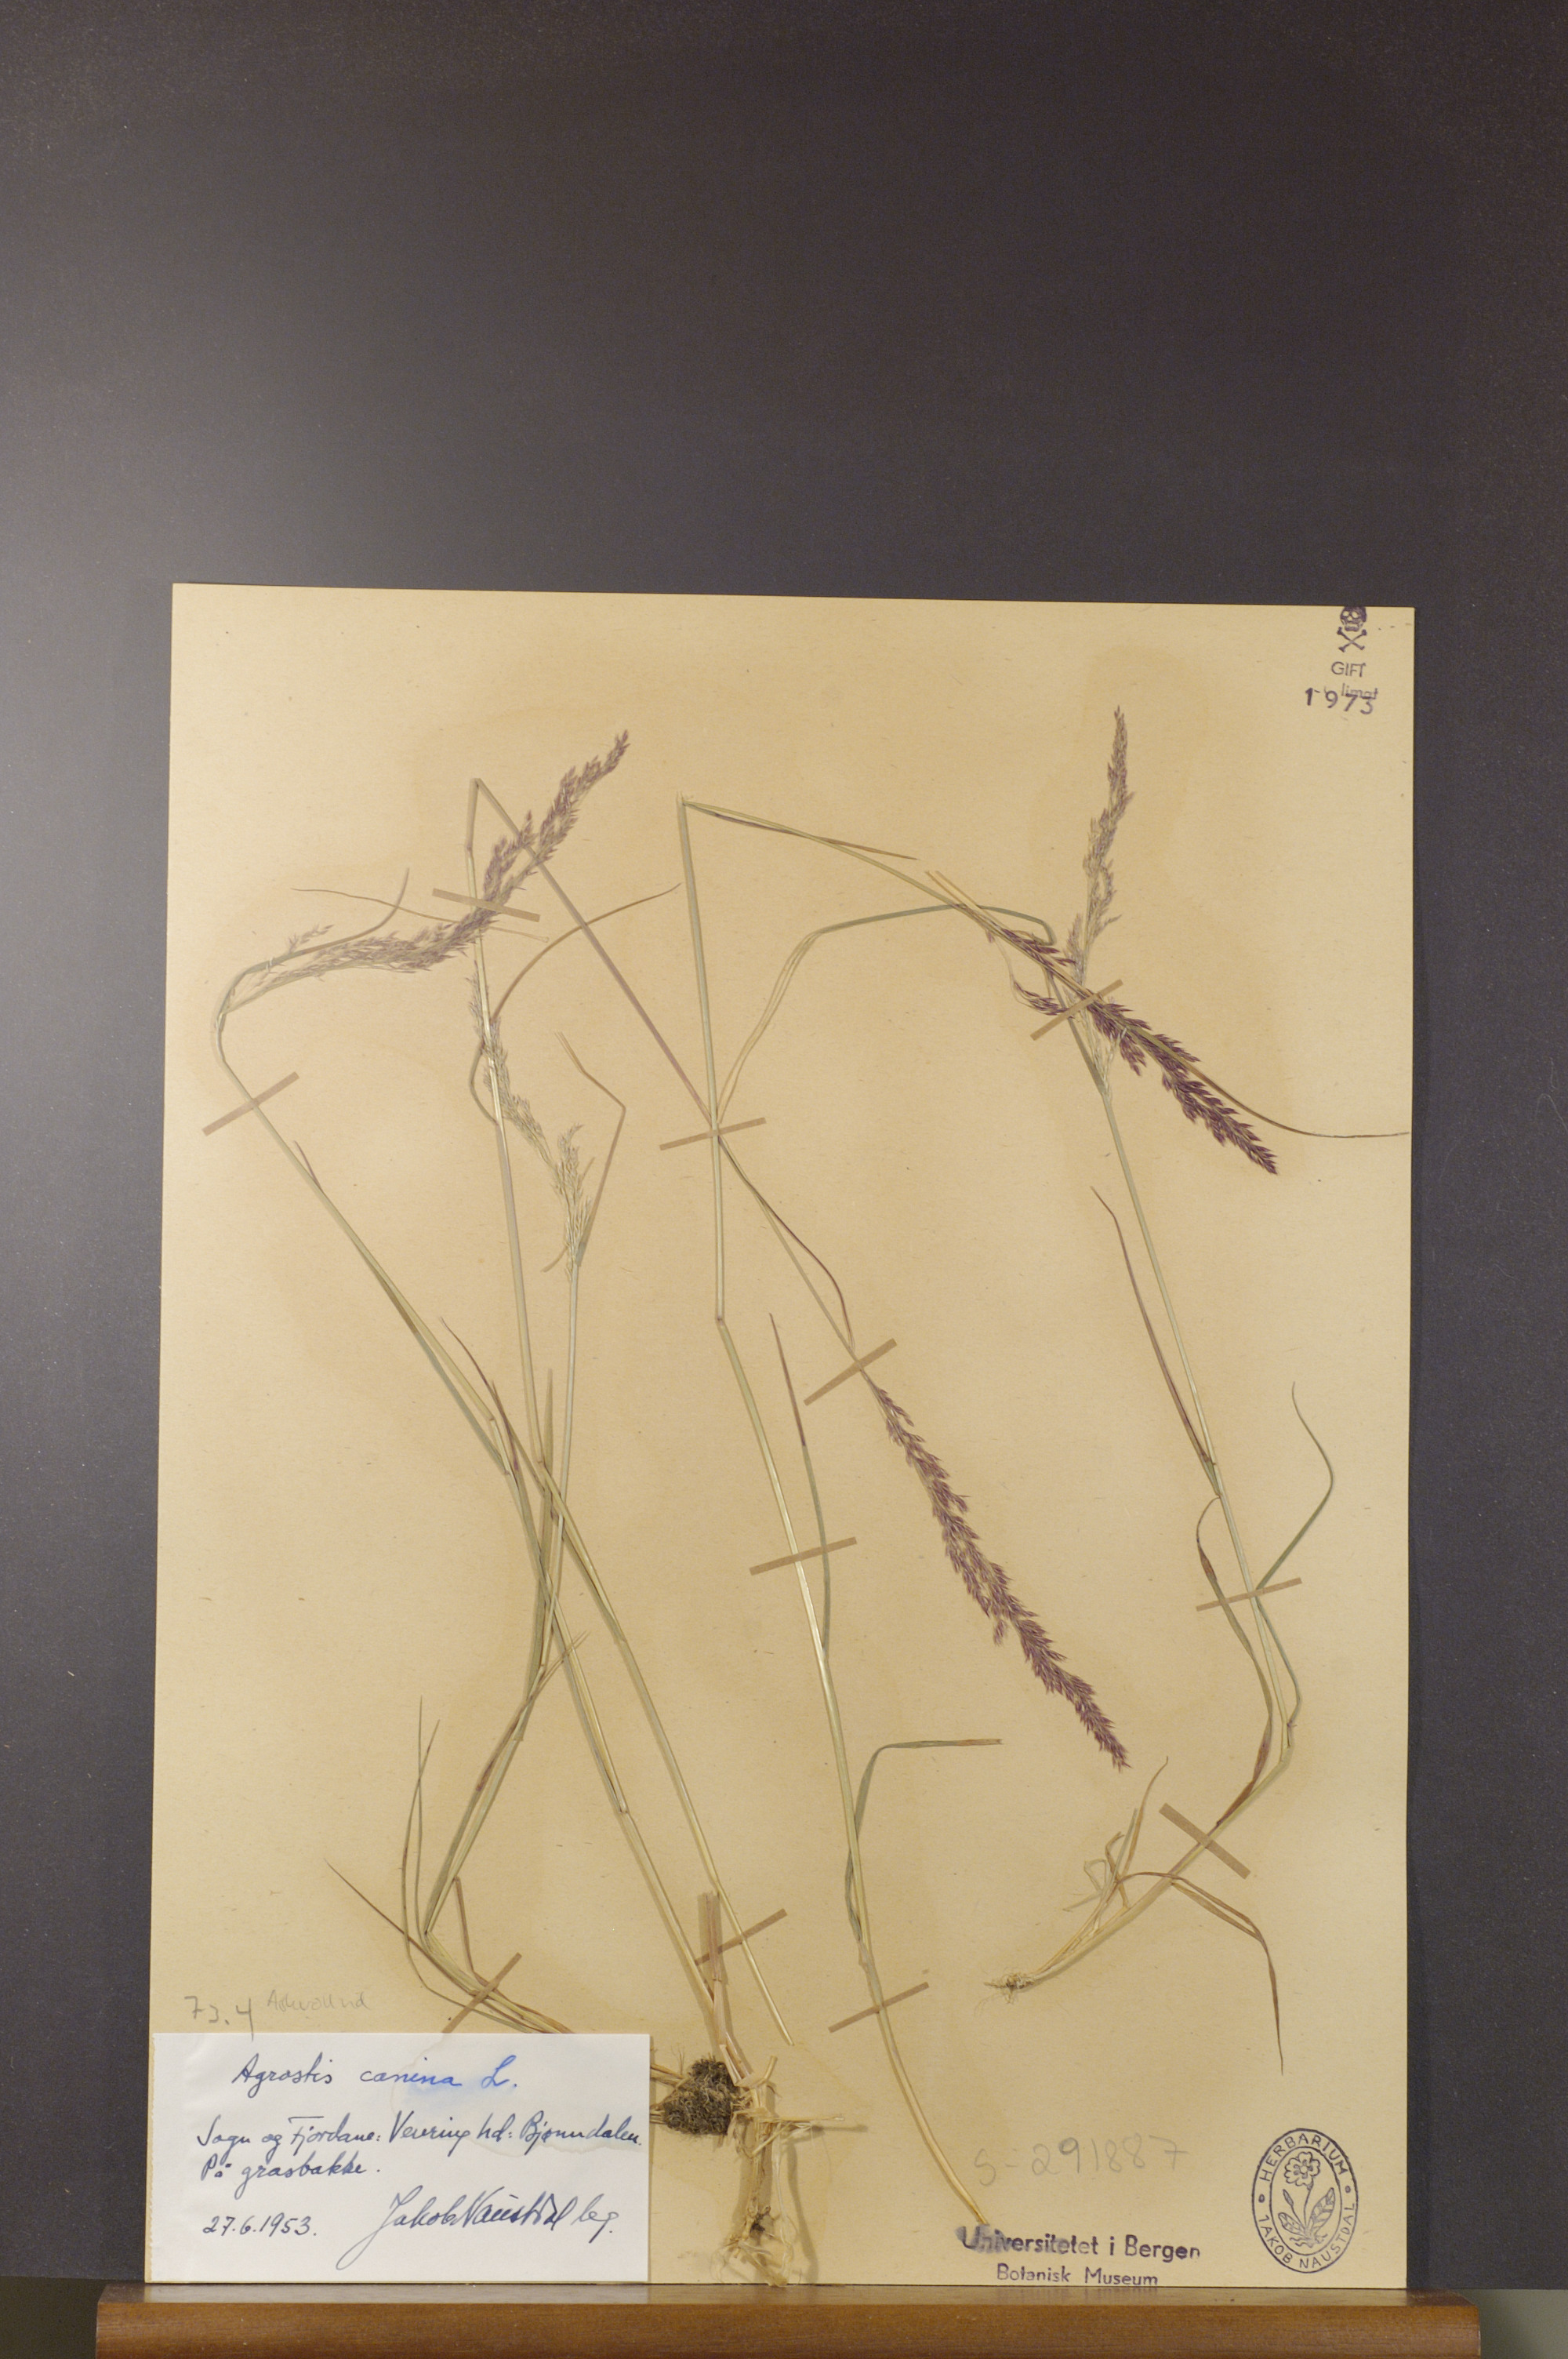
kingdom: Plantae
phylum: Tracheophyta
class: Liliopsida
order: Poales
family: Poaceae
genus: Agrostis
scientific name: Agrostis canina
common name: Velvet bent
